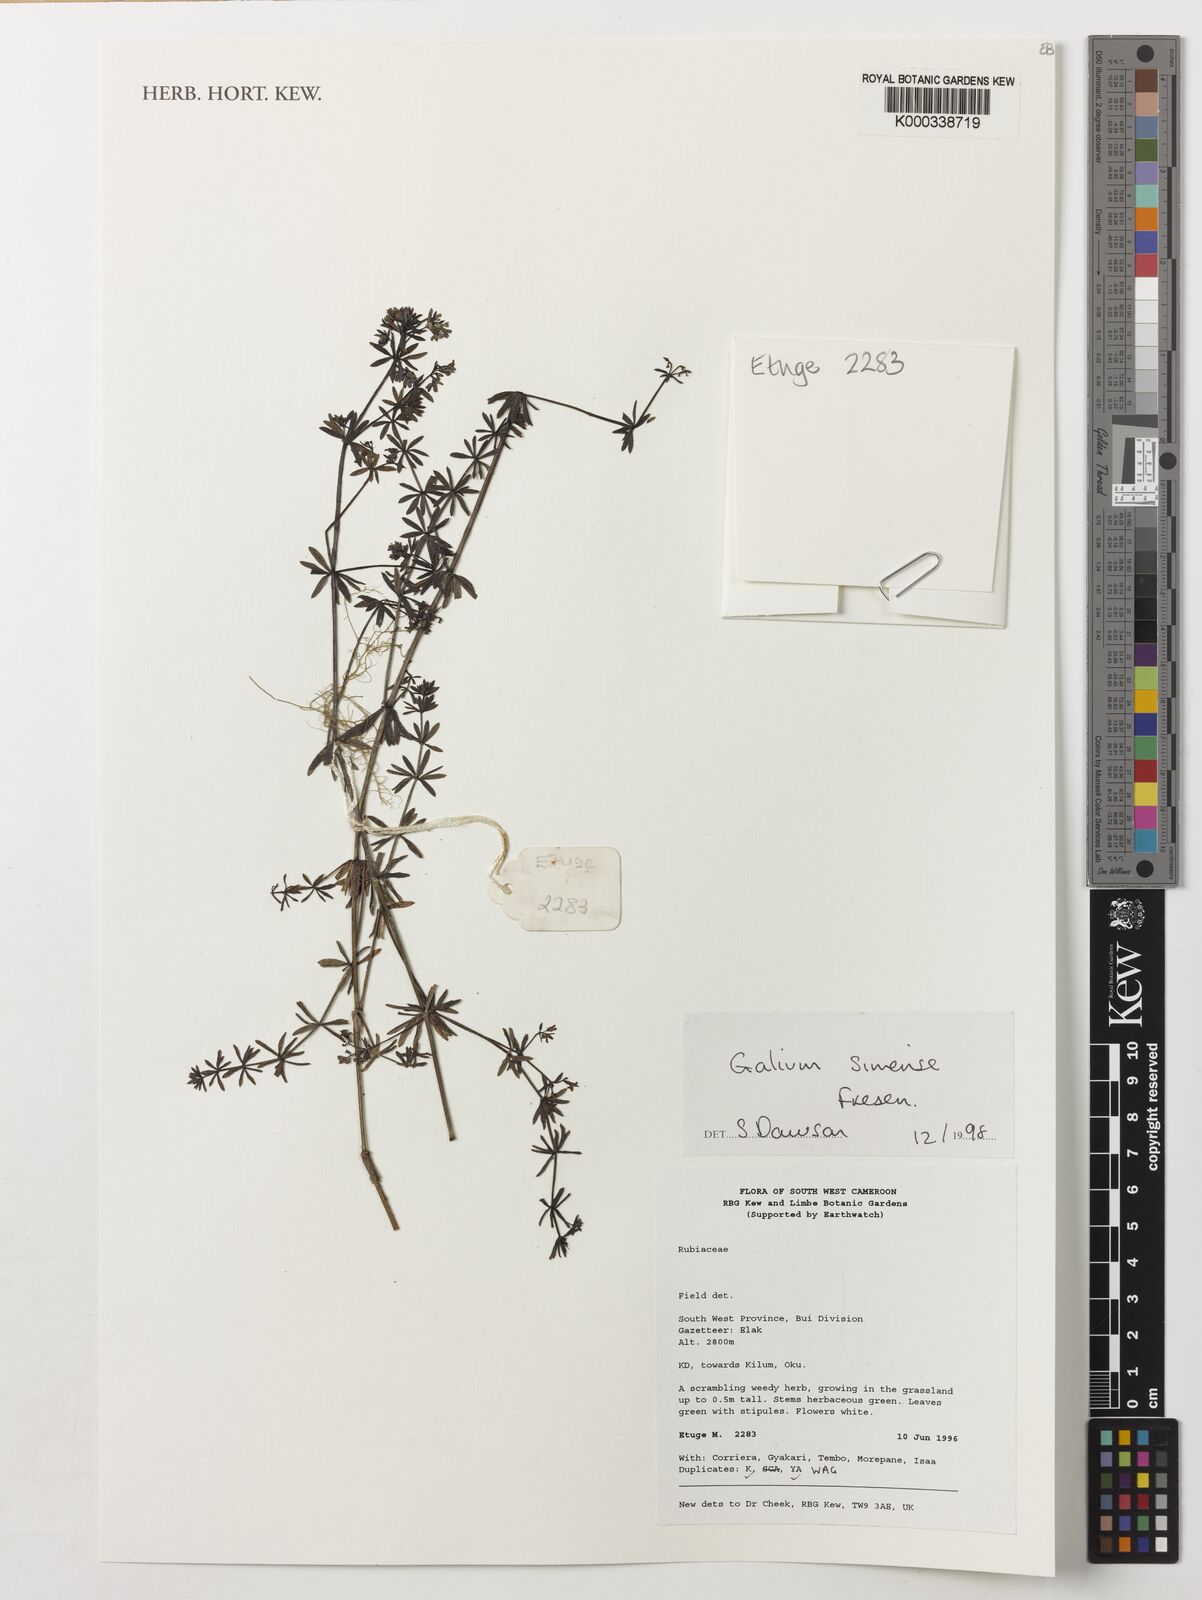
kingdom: Plantae
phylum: Tracheophyta
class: Magnoliopsida
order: Gentianales
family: Rubiaceae
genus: Galium
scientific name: Galium simense
